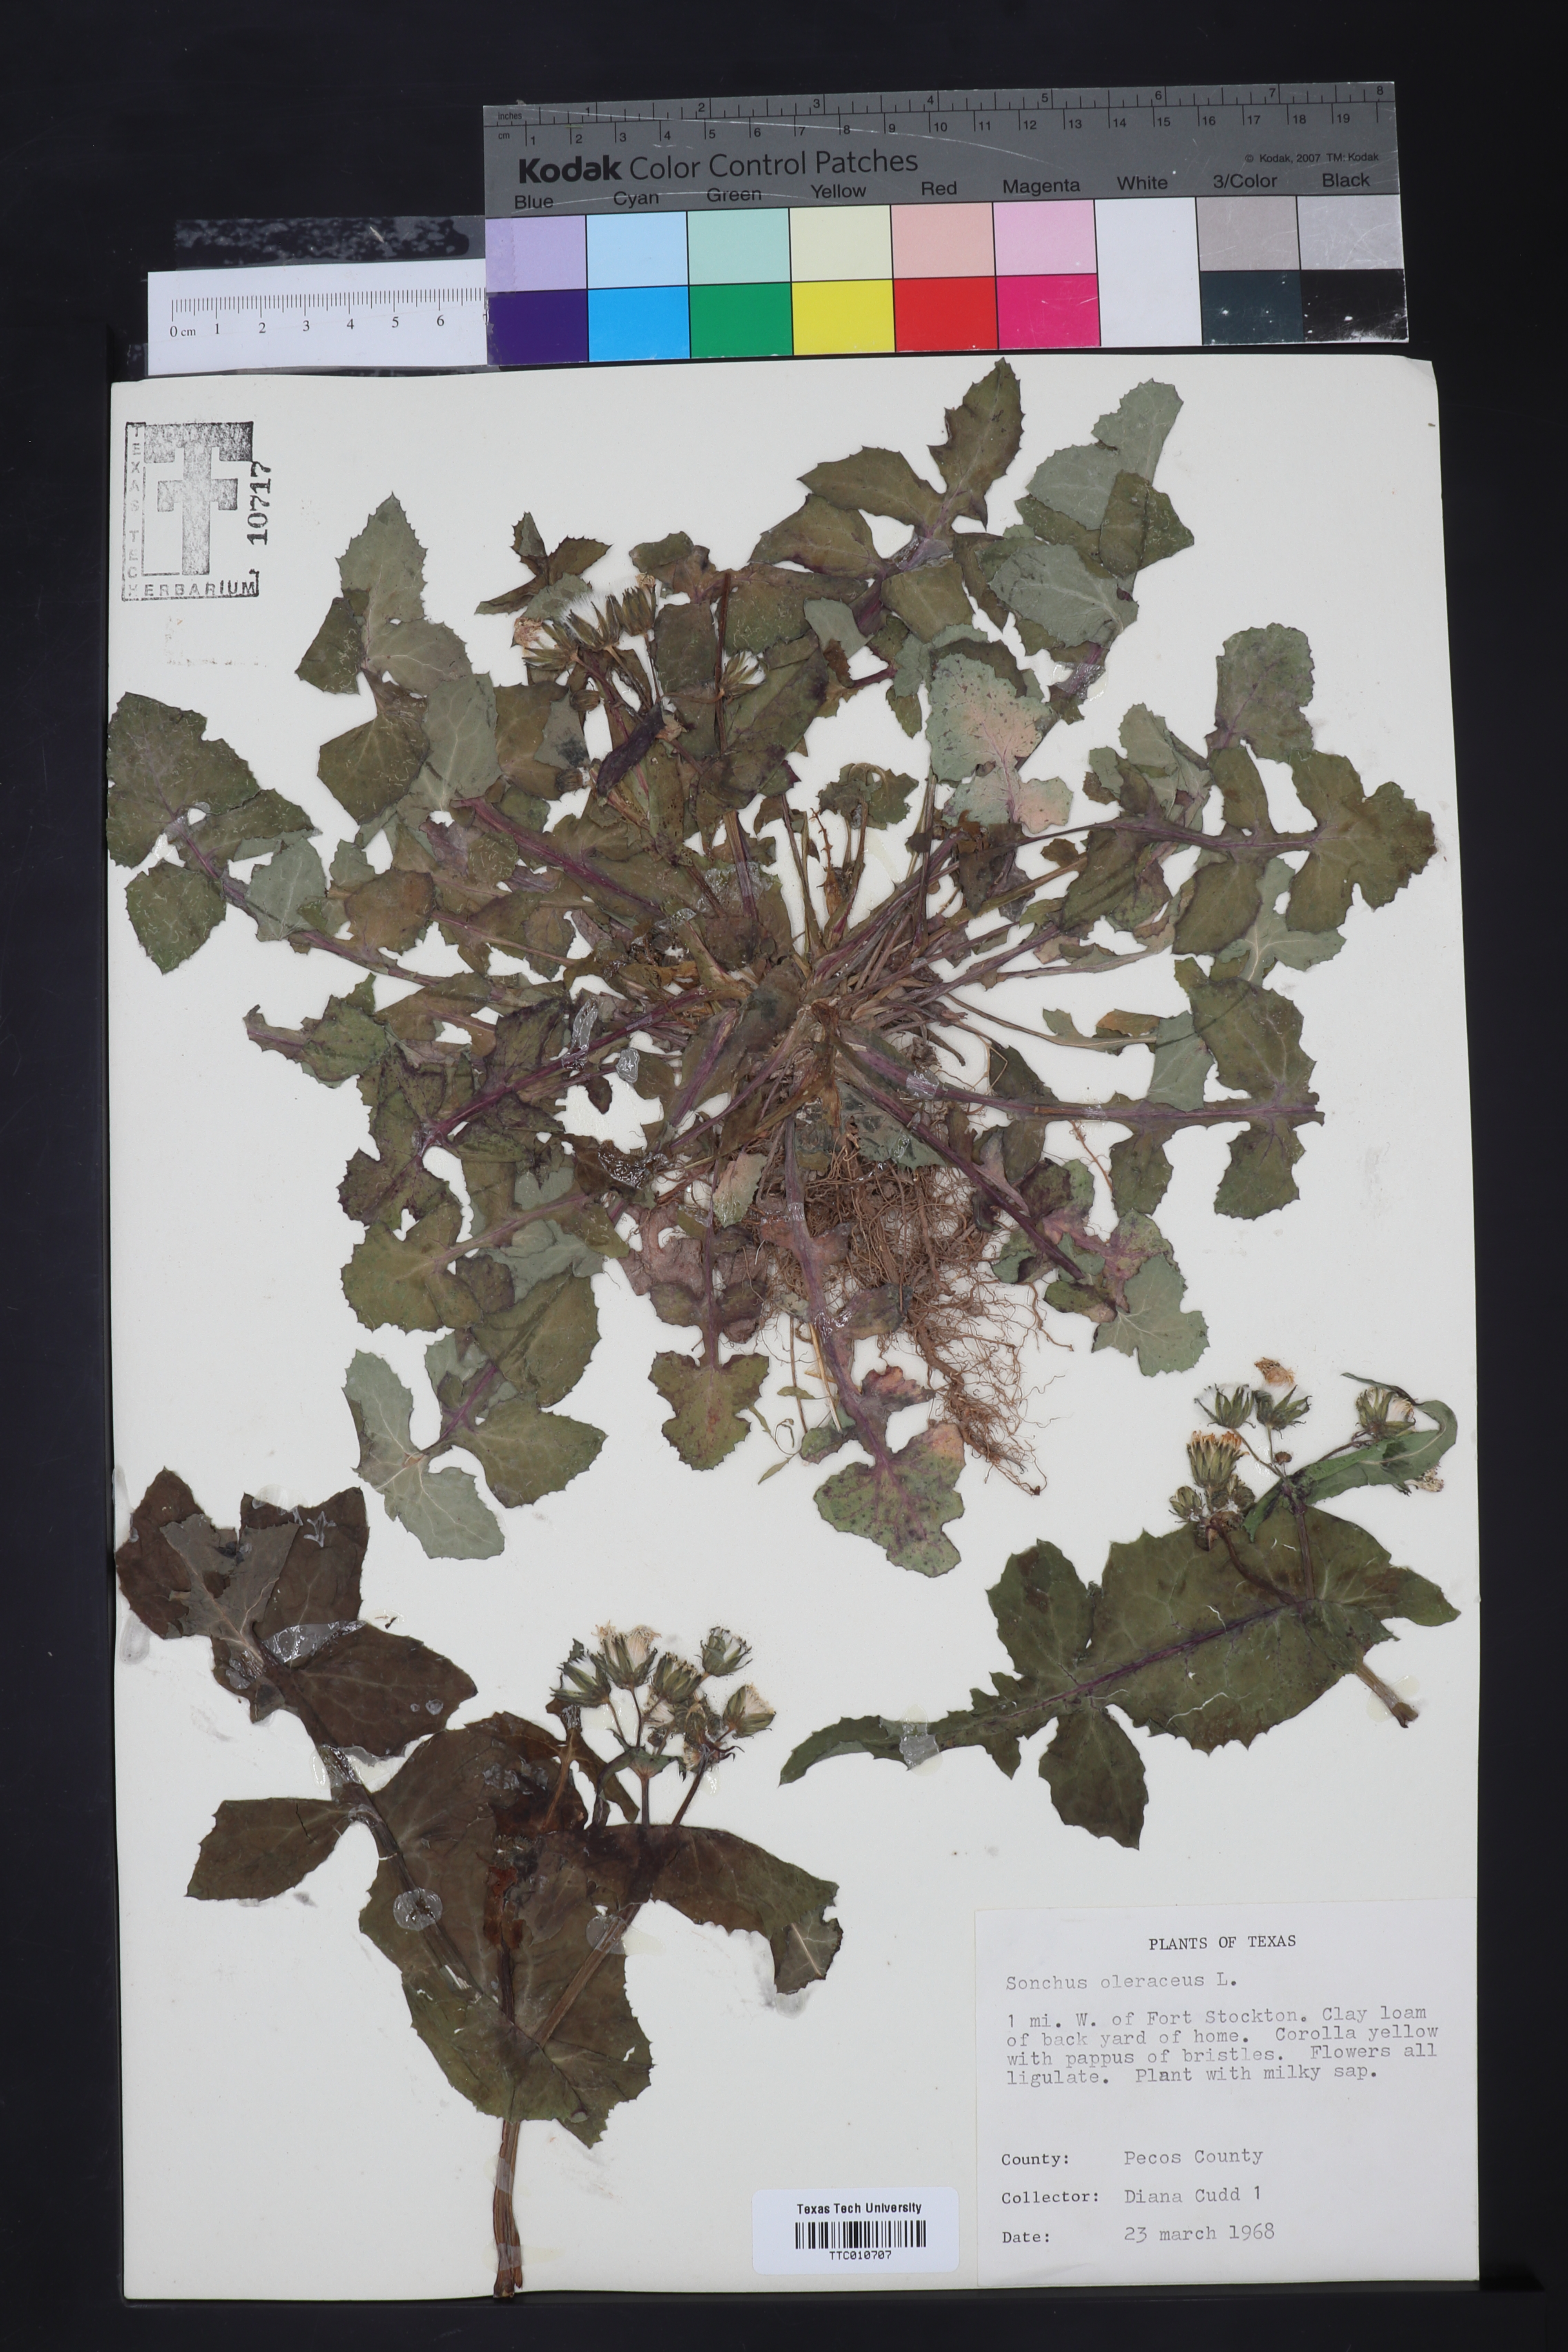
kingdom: Plantae
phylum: Tracheophyta
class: Magnoliopsida
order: Asterales
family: Asteraceae
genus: Sonchus
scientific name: Sonchus oleraceus
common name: Common sowthistle
